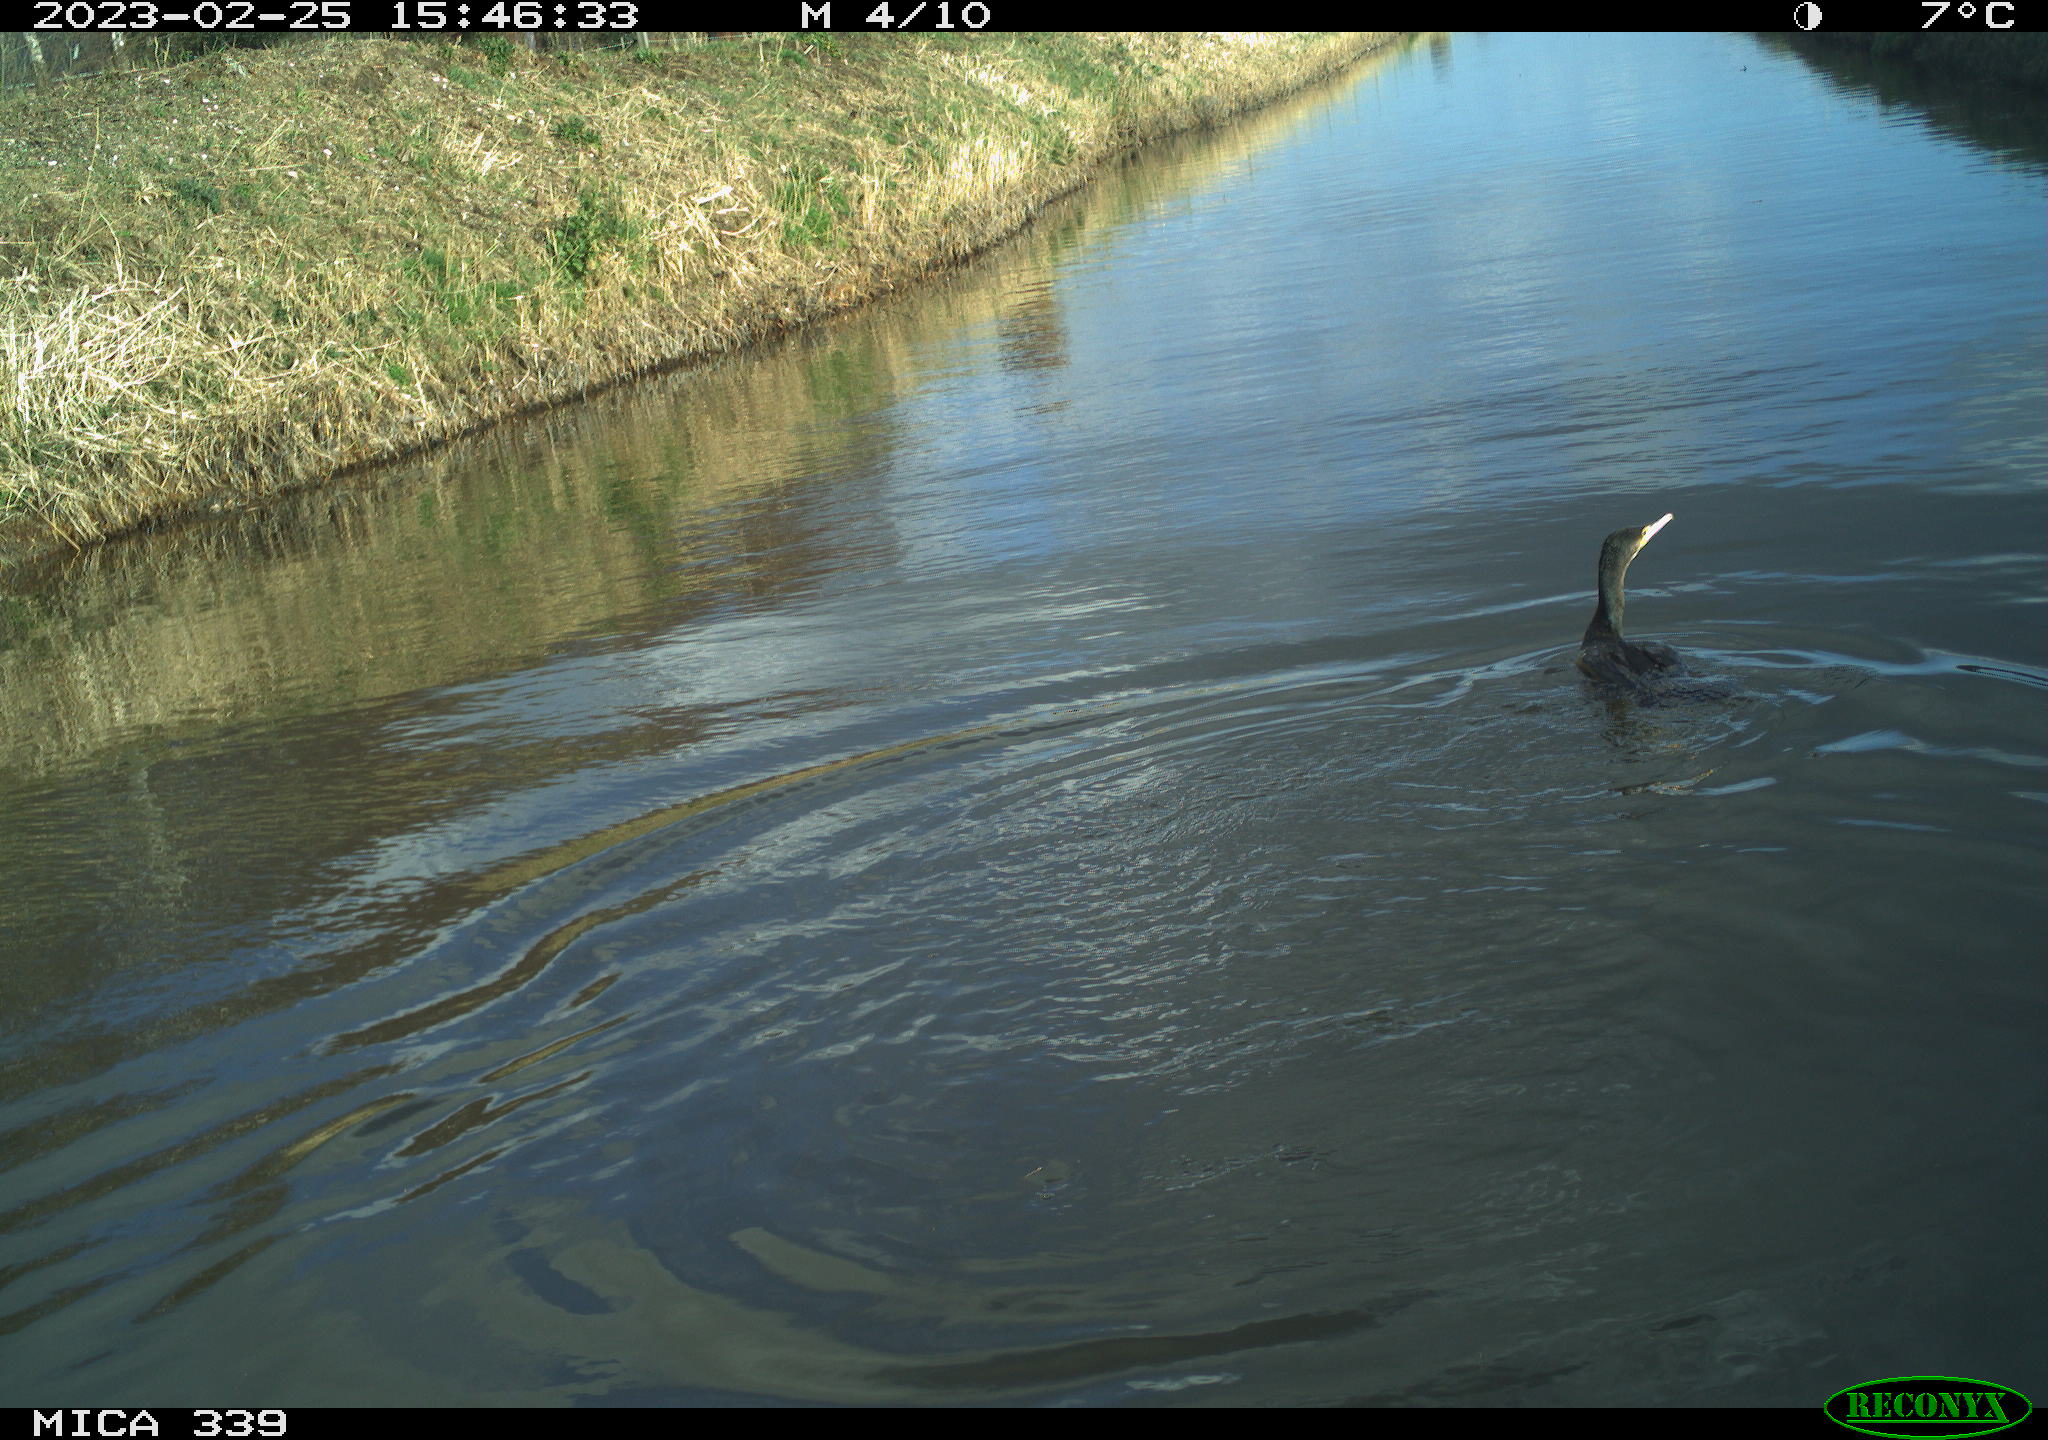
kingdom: Animalia
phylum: Chordata
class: Aves
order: Suliformes
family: Phalacrocoracidae
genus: Phalacrocorax
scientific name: Phalacrocorax carbo
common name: Great cormorant
